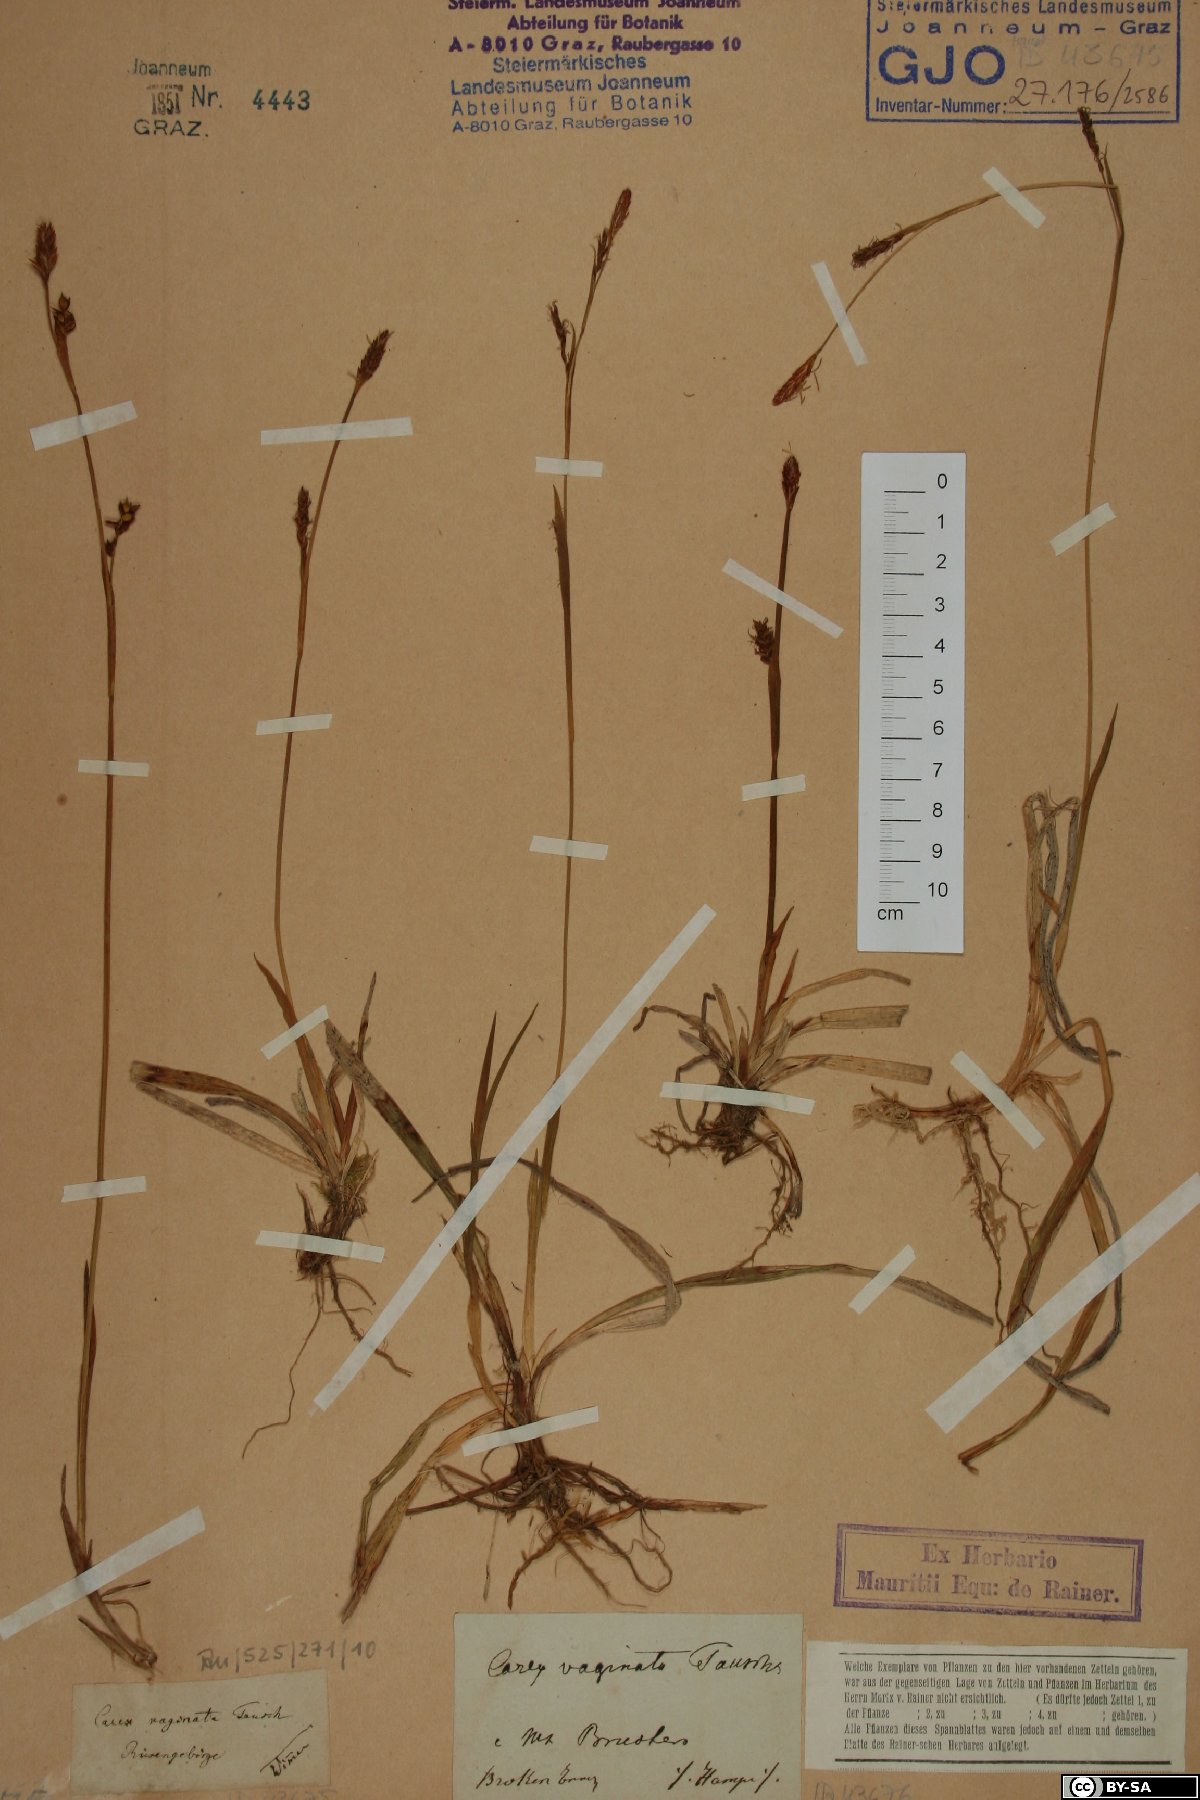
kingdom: Plantae
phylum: Tracheophyta
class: Liliopsida
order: Poales
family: Cyperaceae
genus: Carex
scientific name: Carex vaginata
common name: Sheathed sedge
